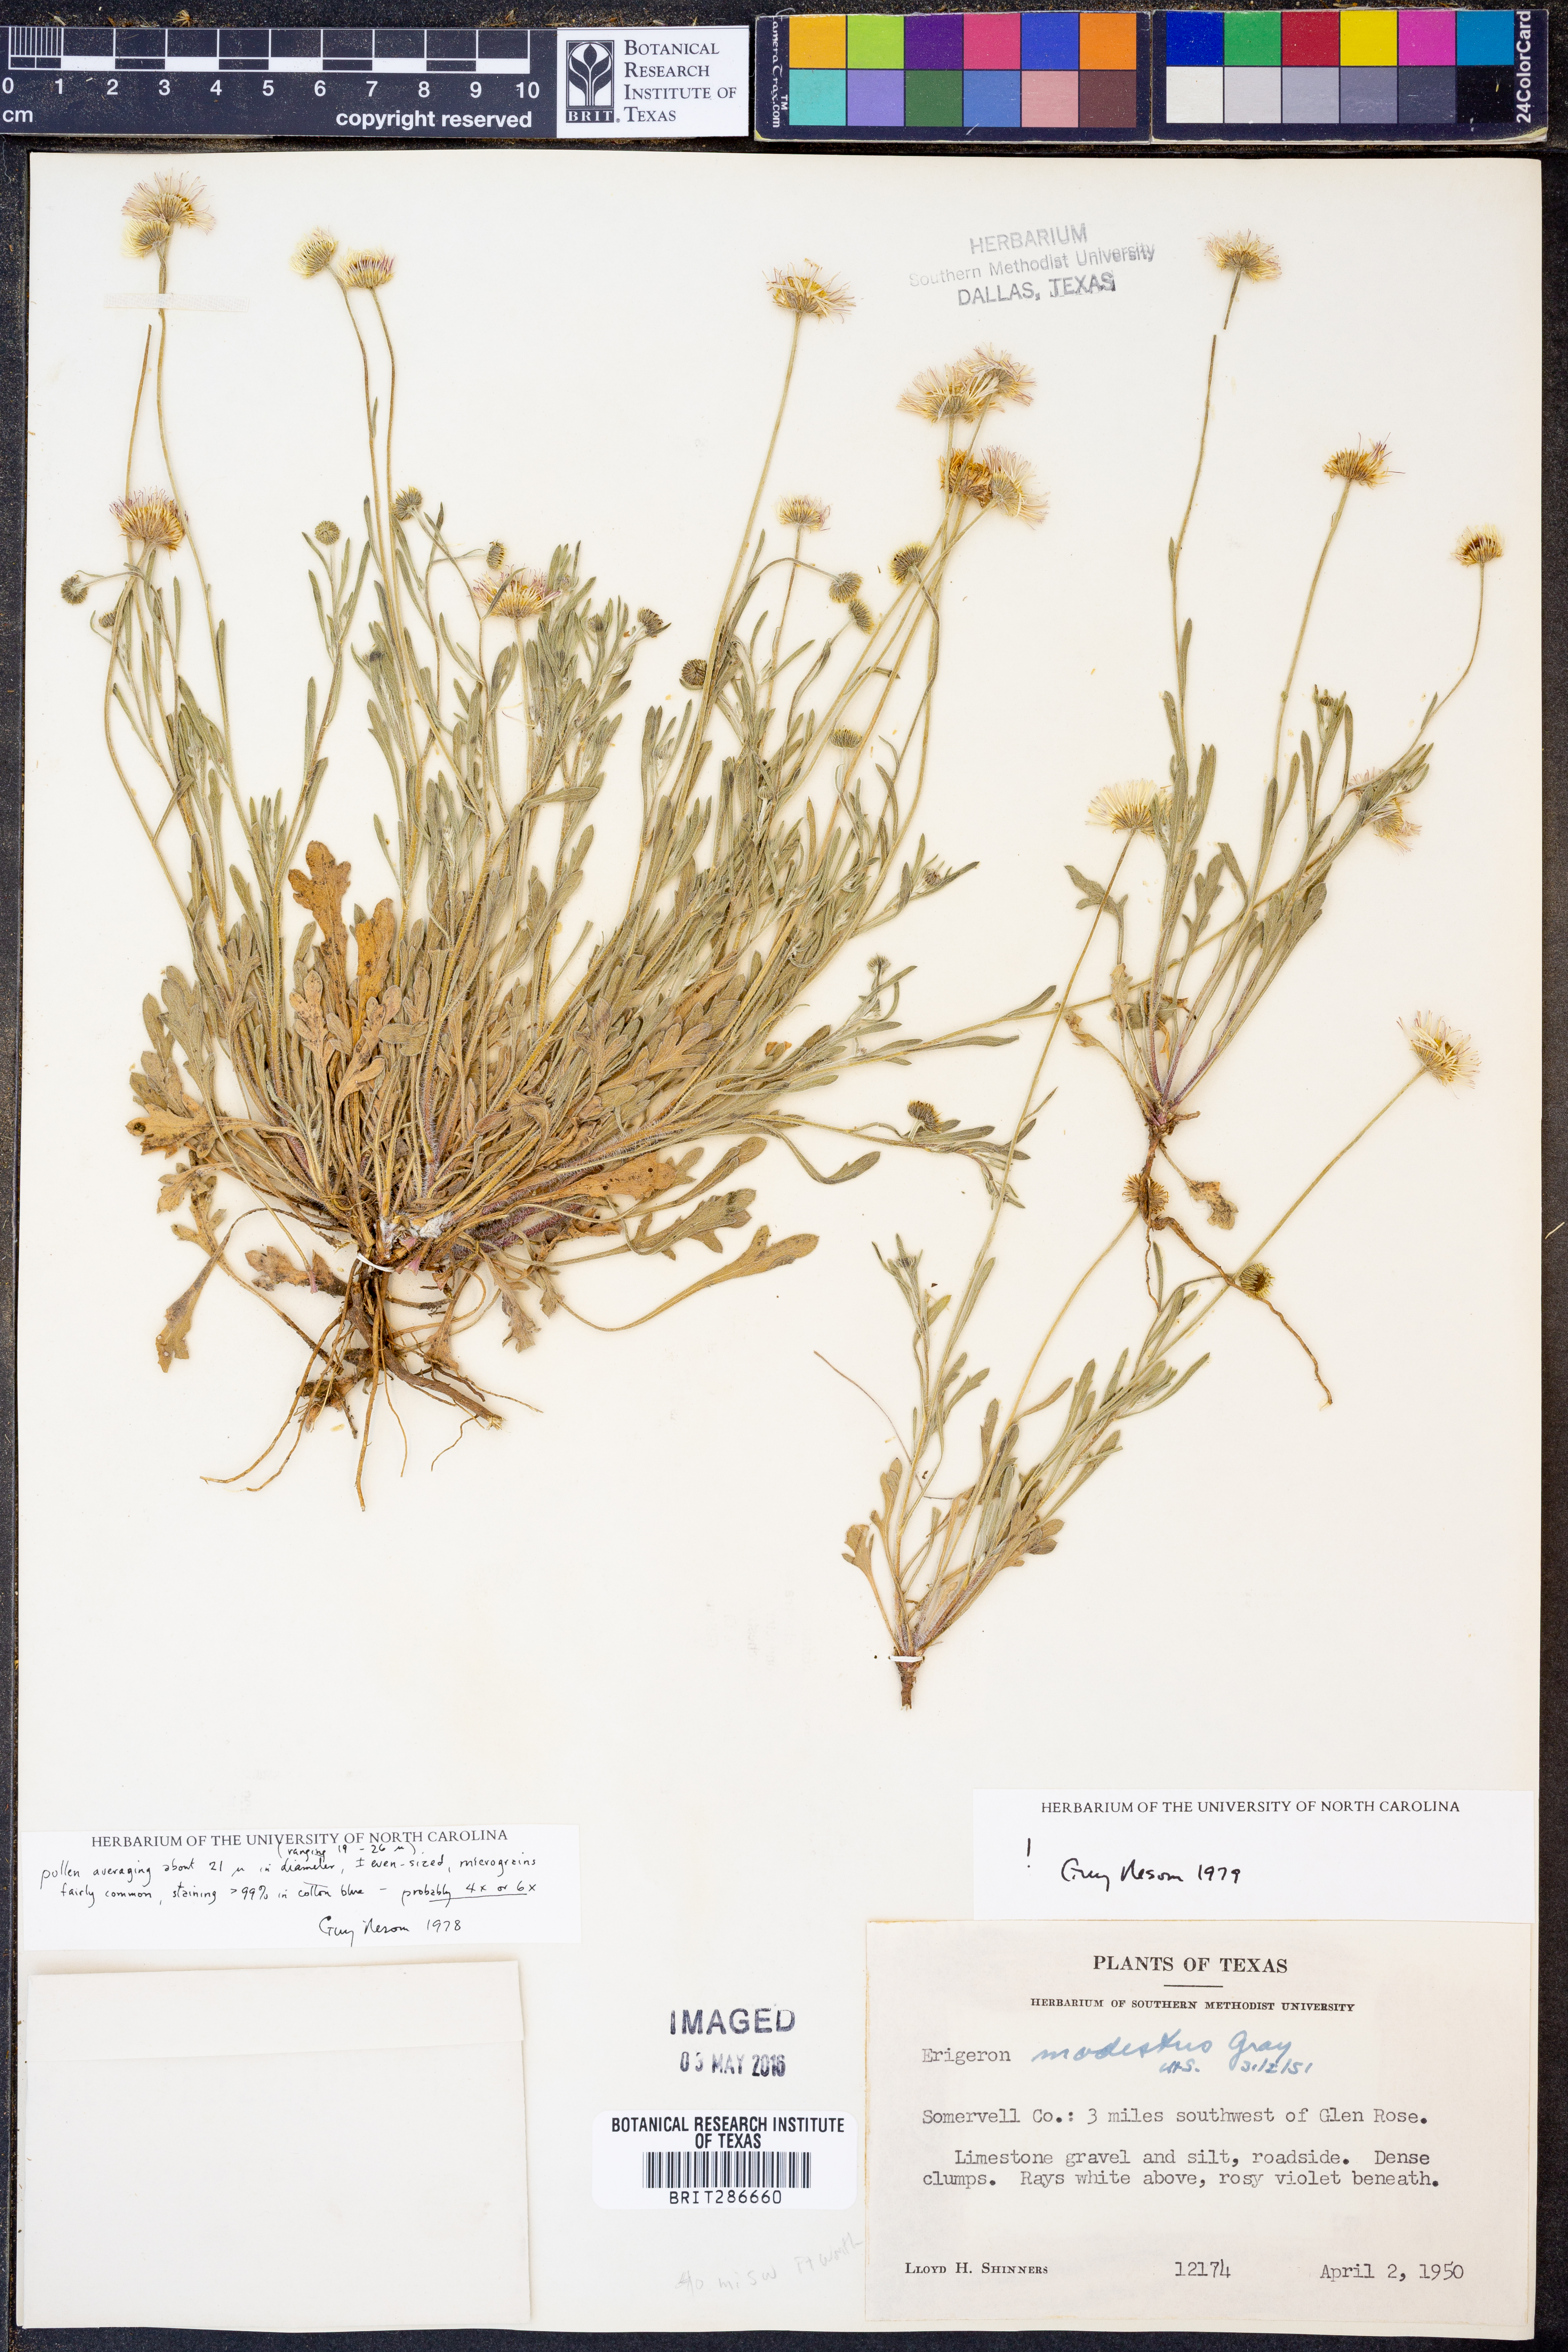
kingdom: Plantae
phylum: Tracheophyta
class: Magnoliopsida
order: Asterales
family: Asteraceae
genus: Erigeron
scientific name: Erigeron modestus
